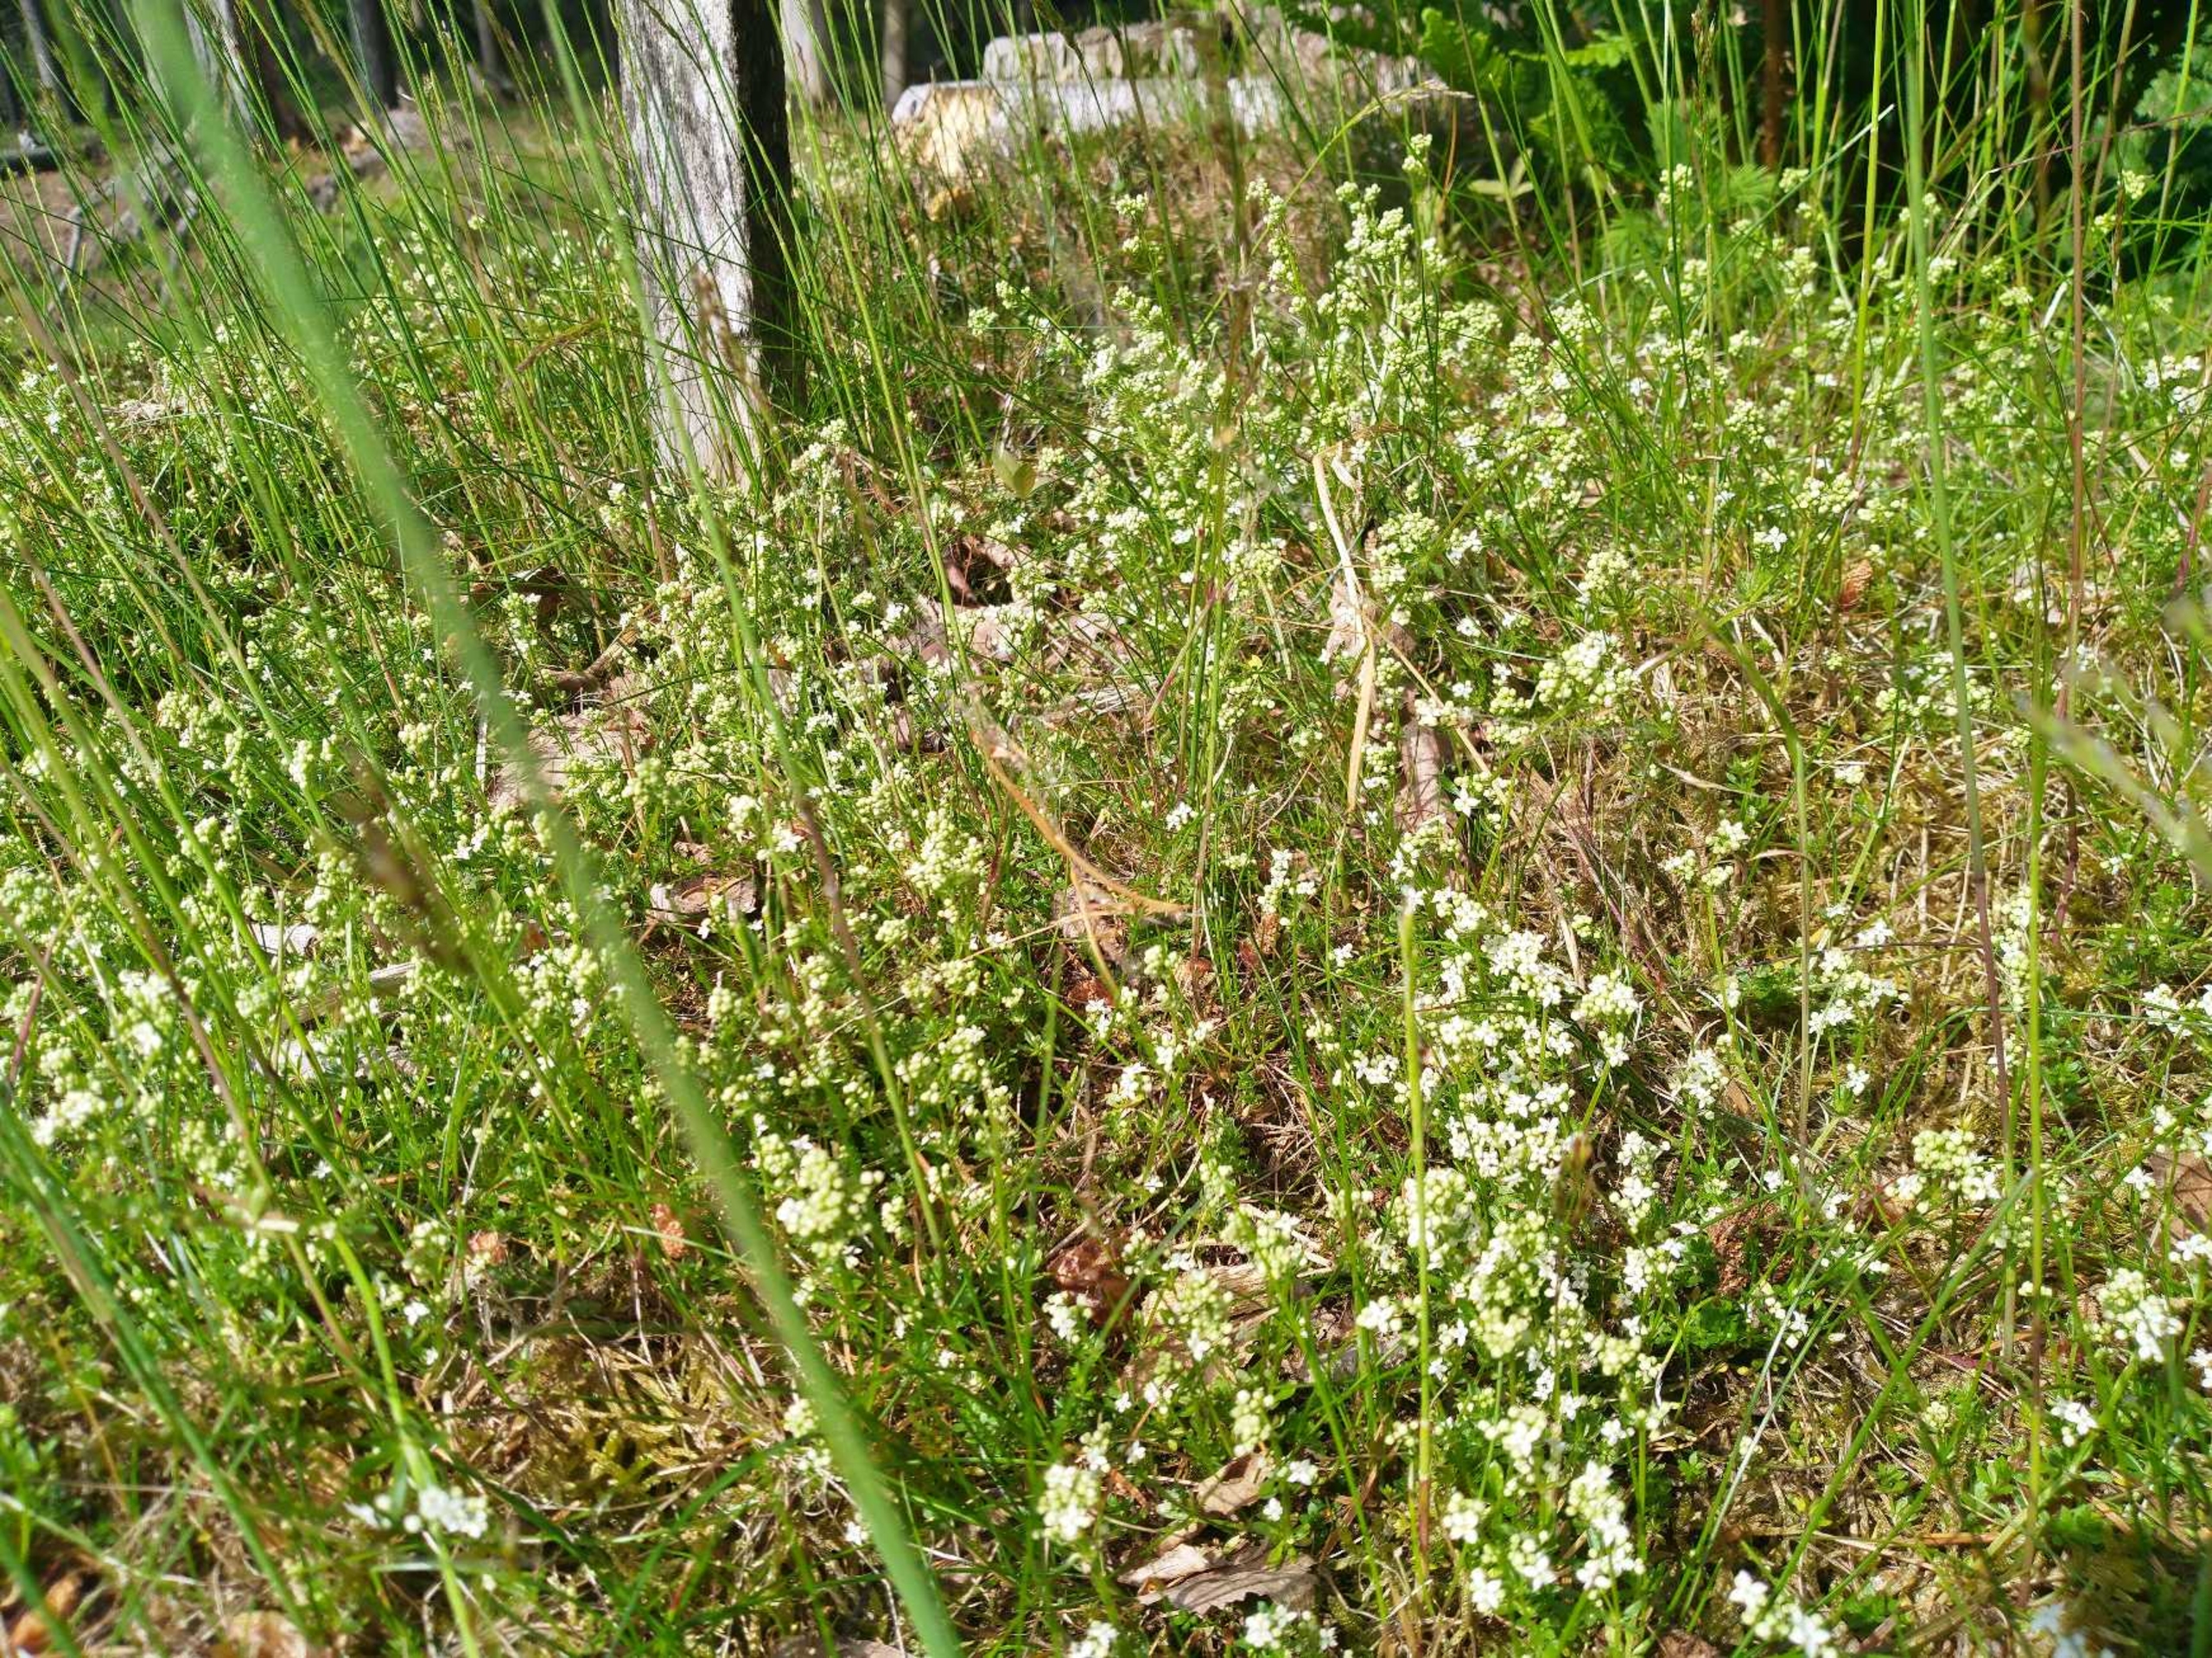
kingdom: Plantae
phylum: Tracheophyta
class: Magnoliopsida
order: Gentianales
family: Rubiaceae
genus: Galium
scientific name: Galium saxatile
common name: Lyng-snerre
